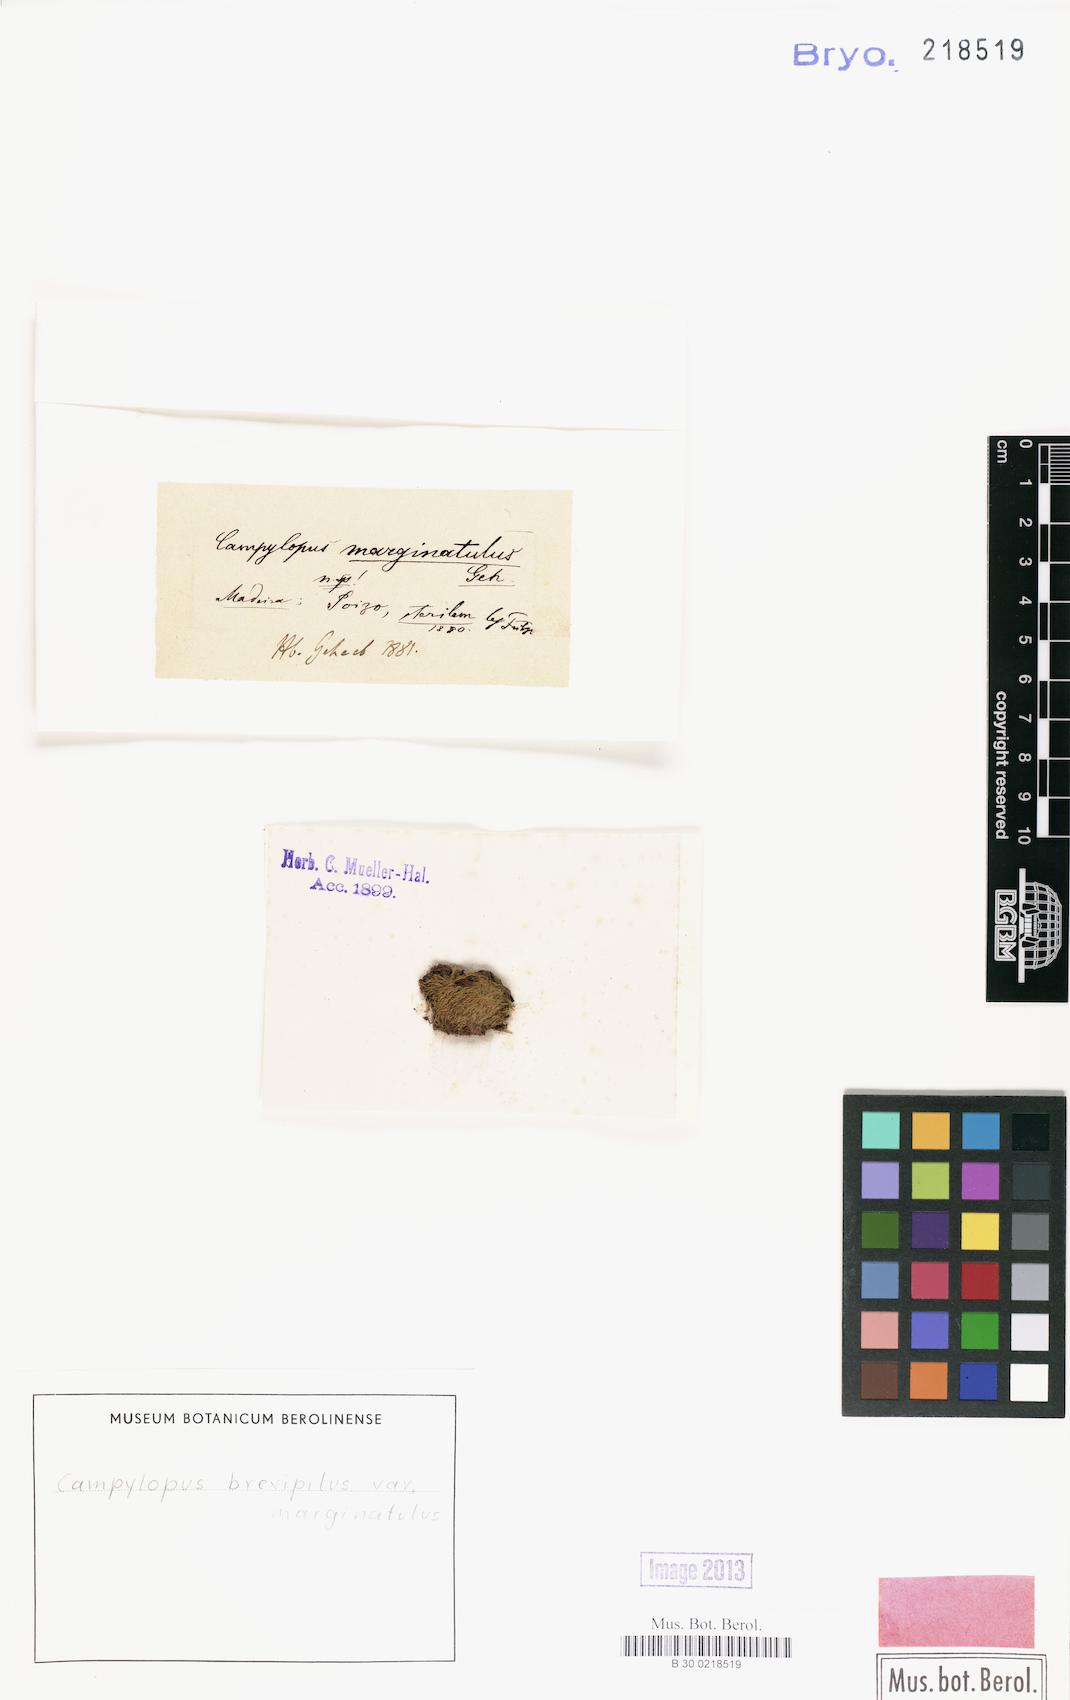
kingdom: Plantae
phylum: Bryophyta
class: Bryopsida
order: Dicranales
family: Ditrichaceae
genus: Ditrichum
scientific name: Ditrichum punctulatum
